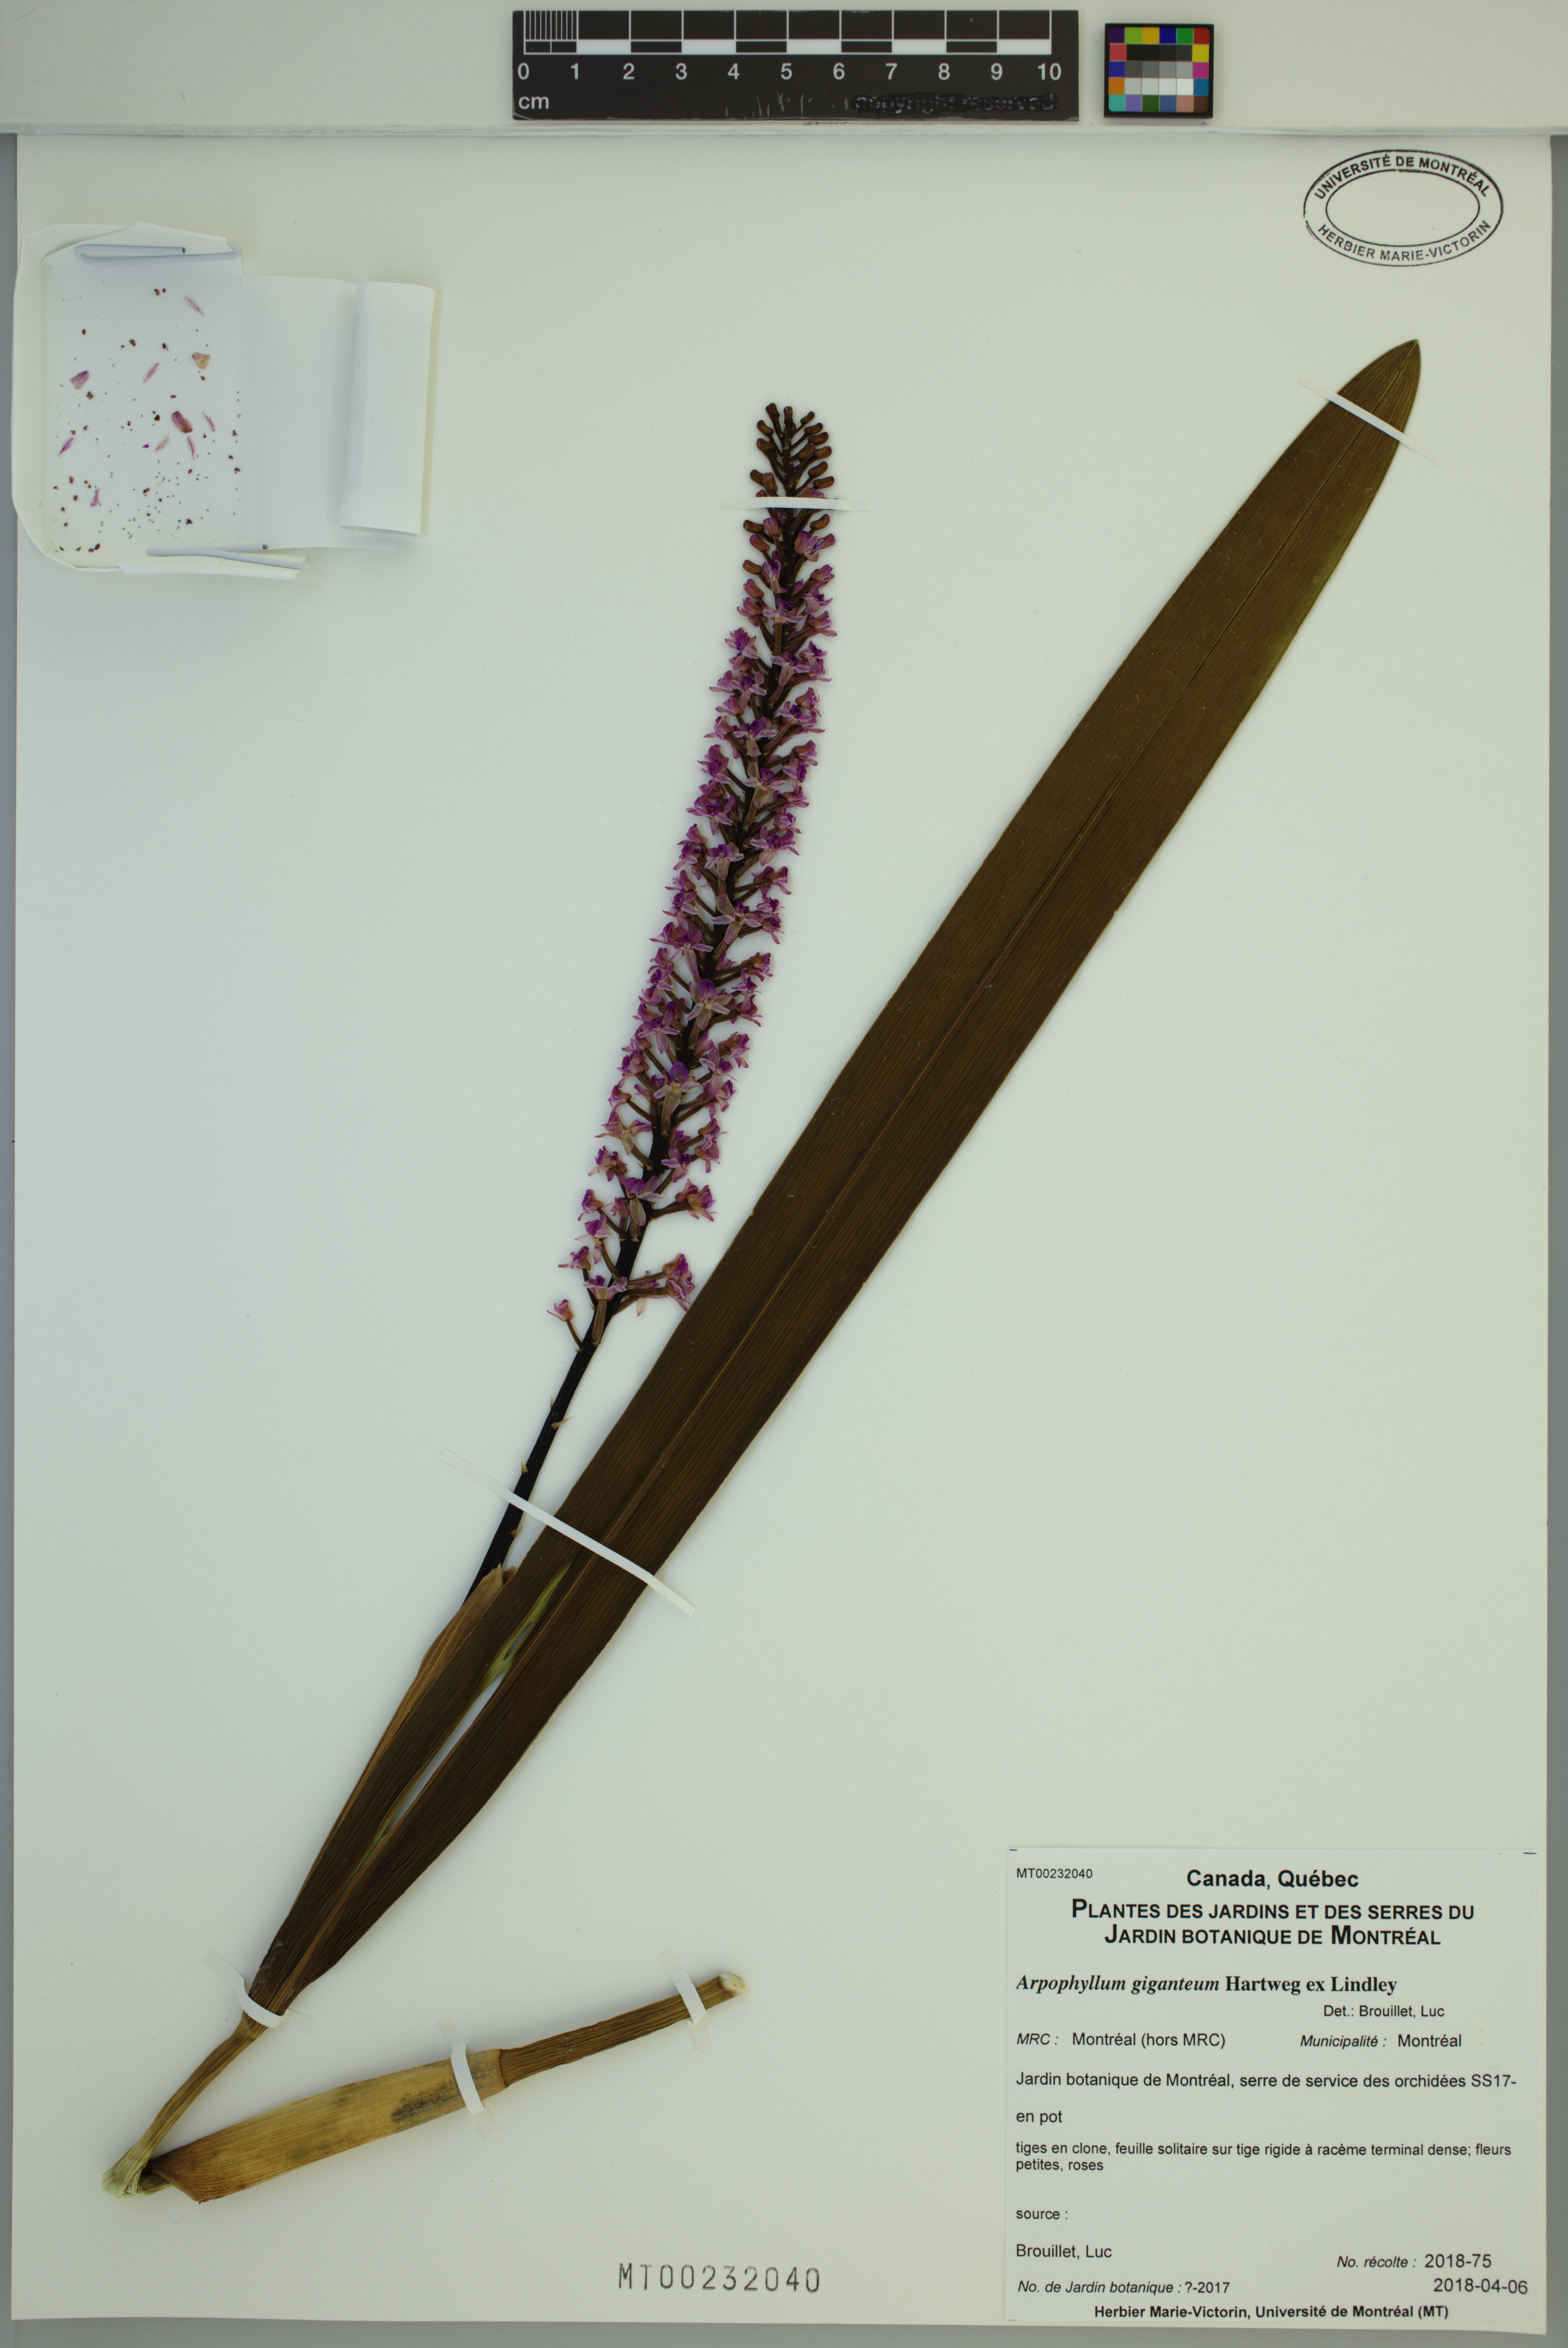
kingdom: Plantae
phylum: Tracheophyta
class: Liliopsida
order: Asparagales
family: Orchidaceae
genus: Arpophyllum
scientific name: Arpophyllum giganteum
